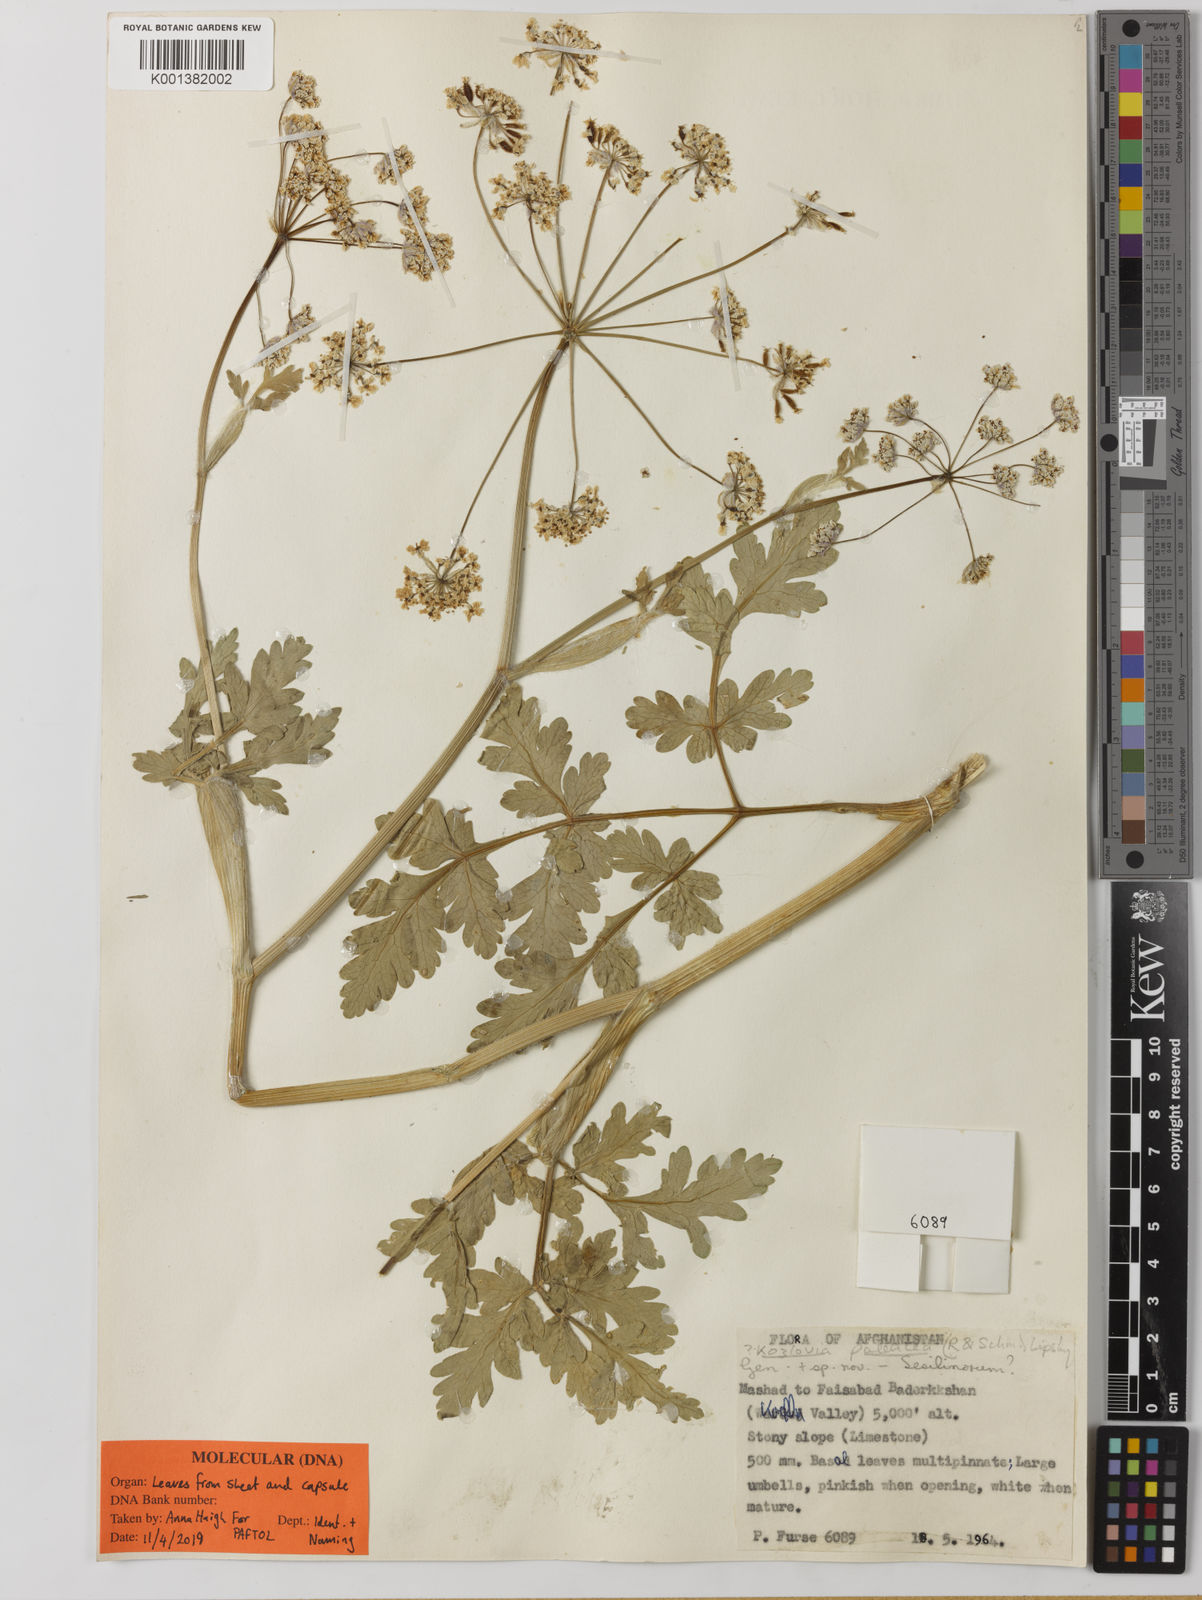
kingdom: Plantae
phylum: Tracheophyta
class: Magnoliopsida
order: Apiales
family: Apiaceae
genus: Kozlovia
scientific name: Kozlovia paleacea
